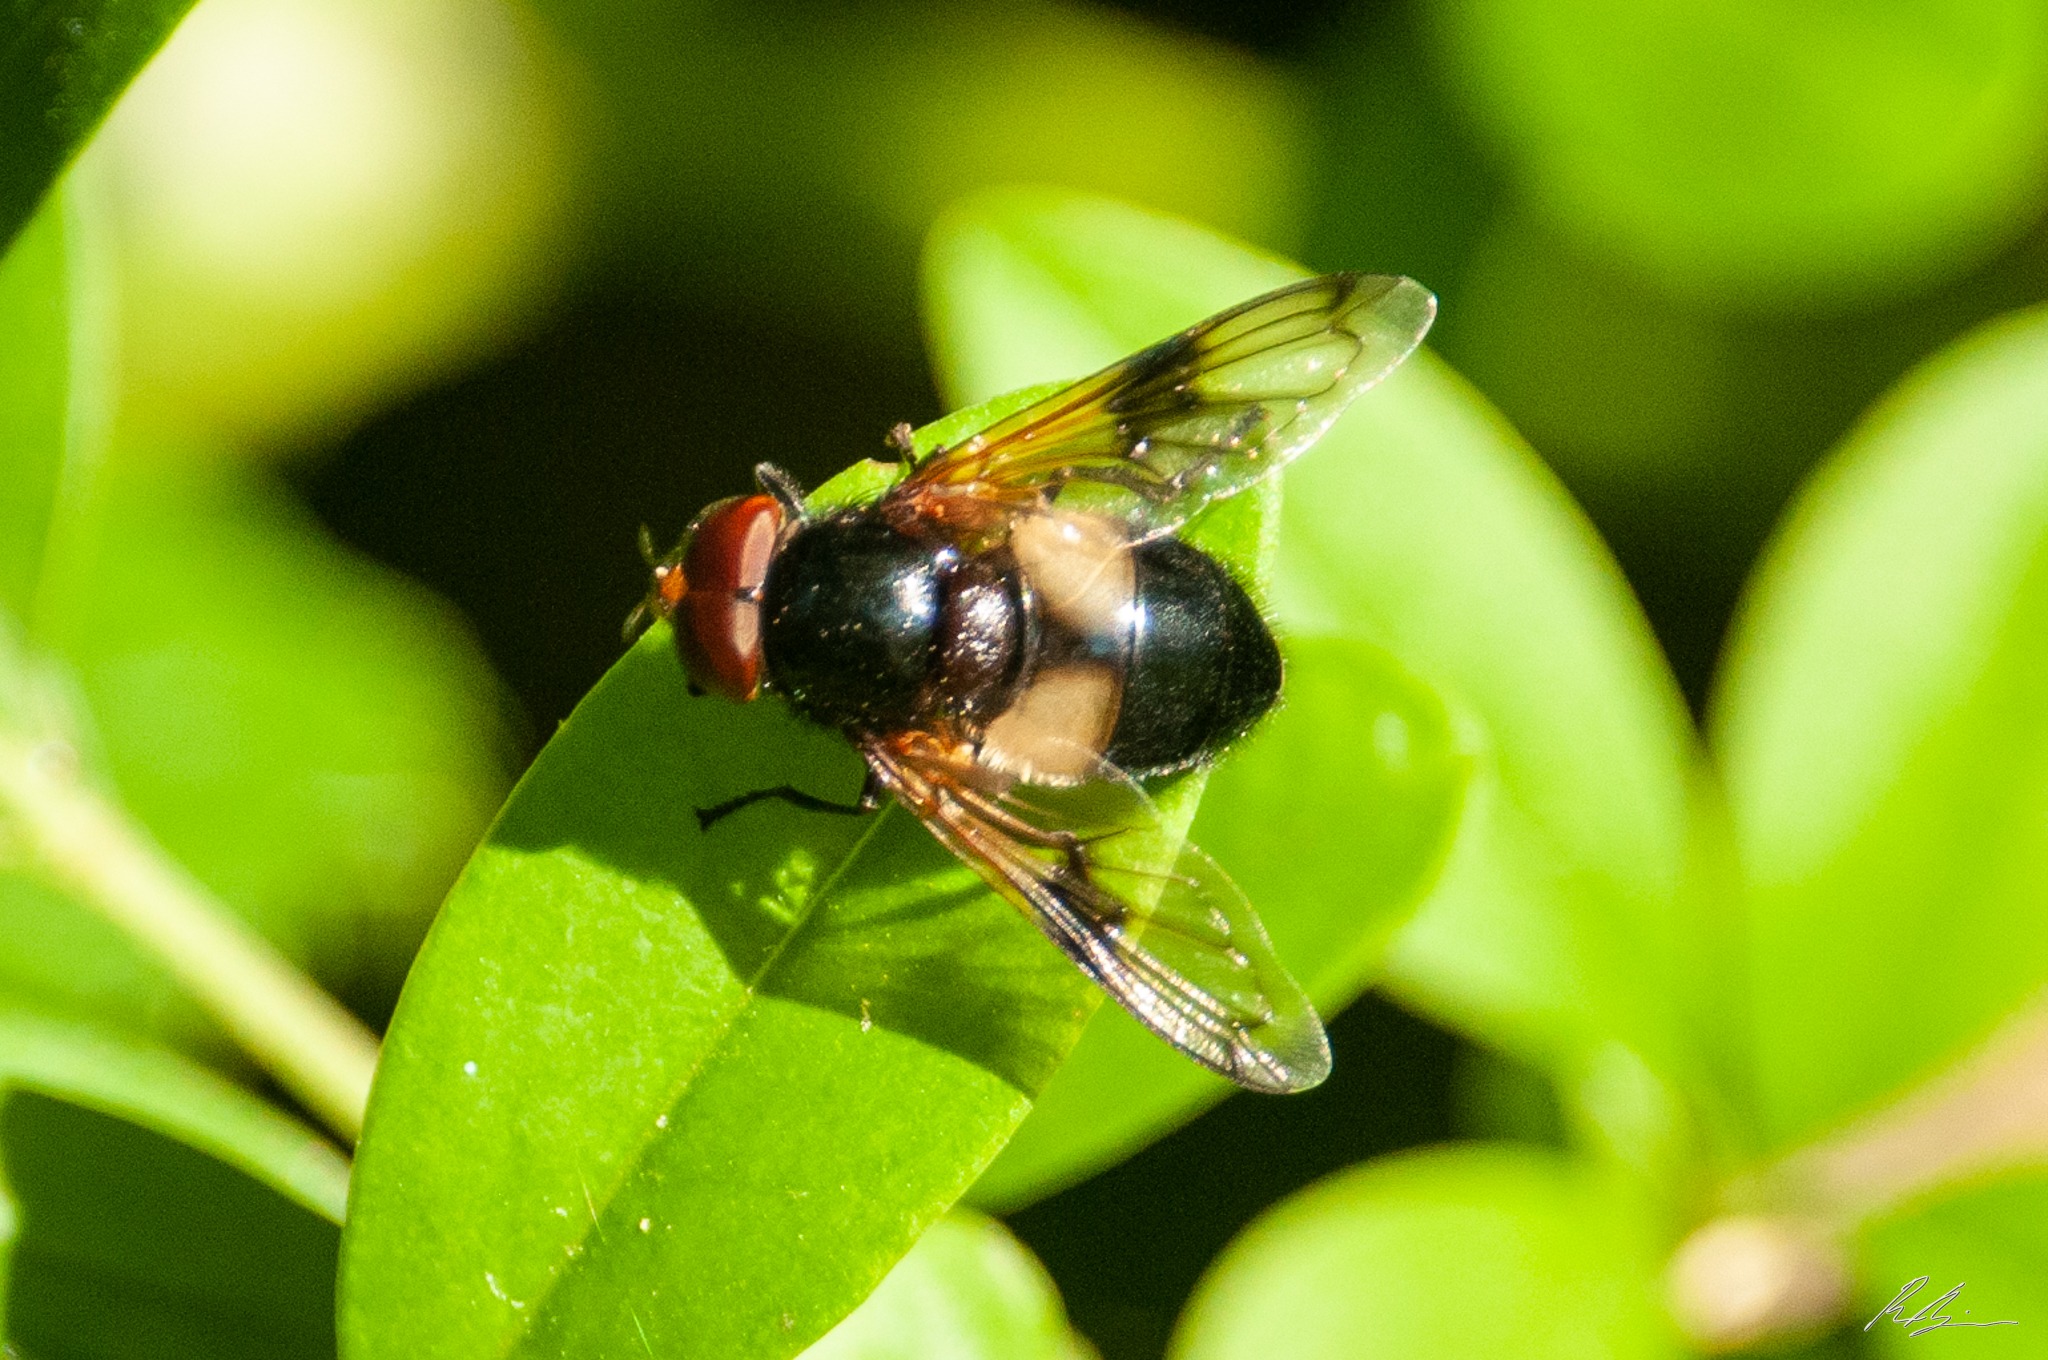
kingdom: Animalia
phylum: Arthropoda
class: Insecta
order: Diptera
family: Syrphidae
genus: Volucella
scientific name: Volucella pellucens
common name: Hvidbåndet humlesvirreflue
